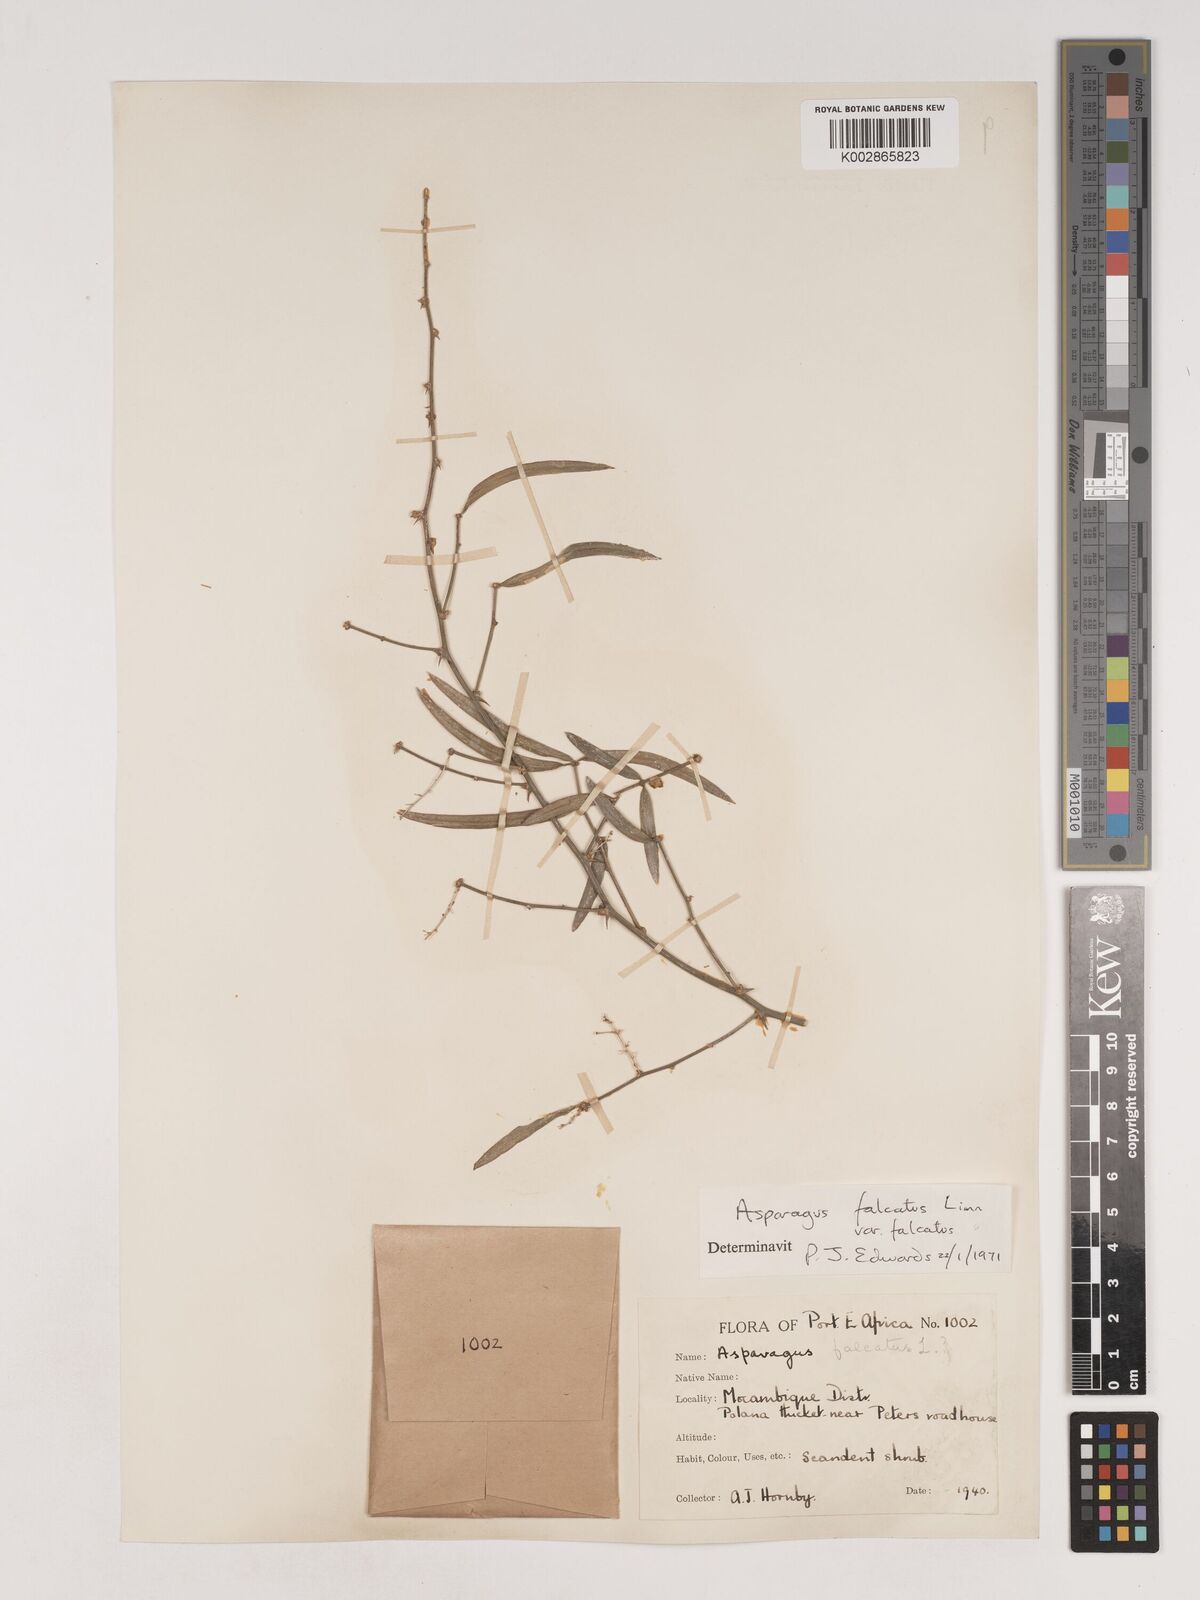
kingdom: Plantae
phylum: Tracheophyta
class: Liliopsida
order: Asparagales
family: Asparagaceae
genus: Asparagus
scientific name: Asparagus falcatus
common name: Asparagus
